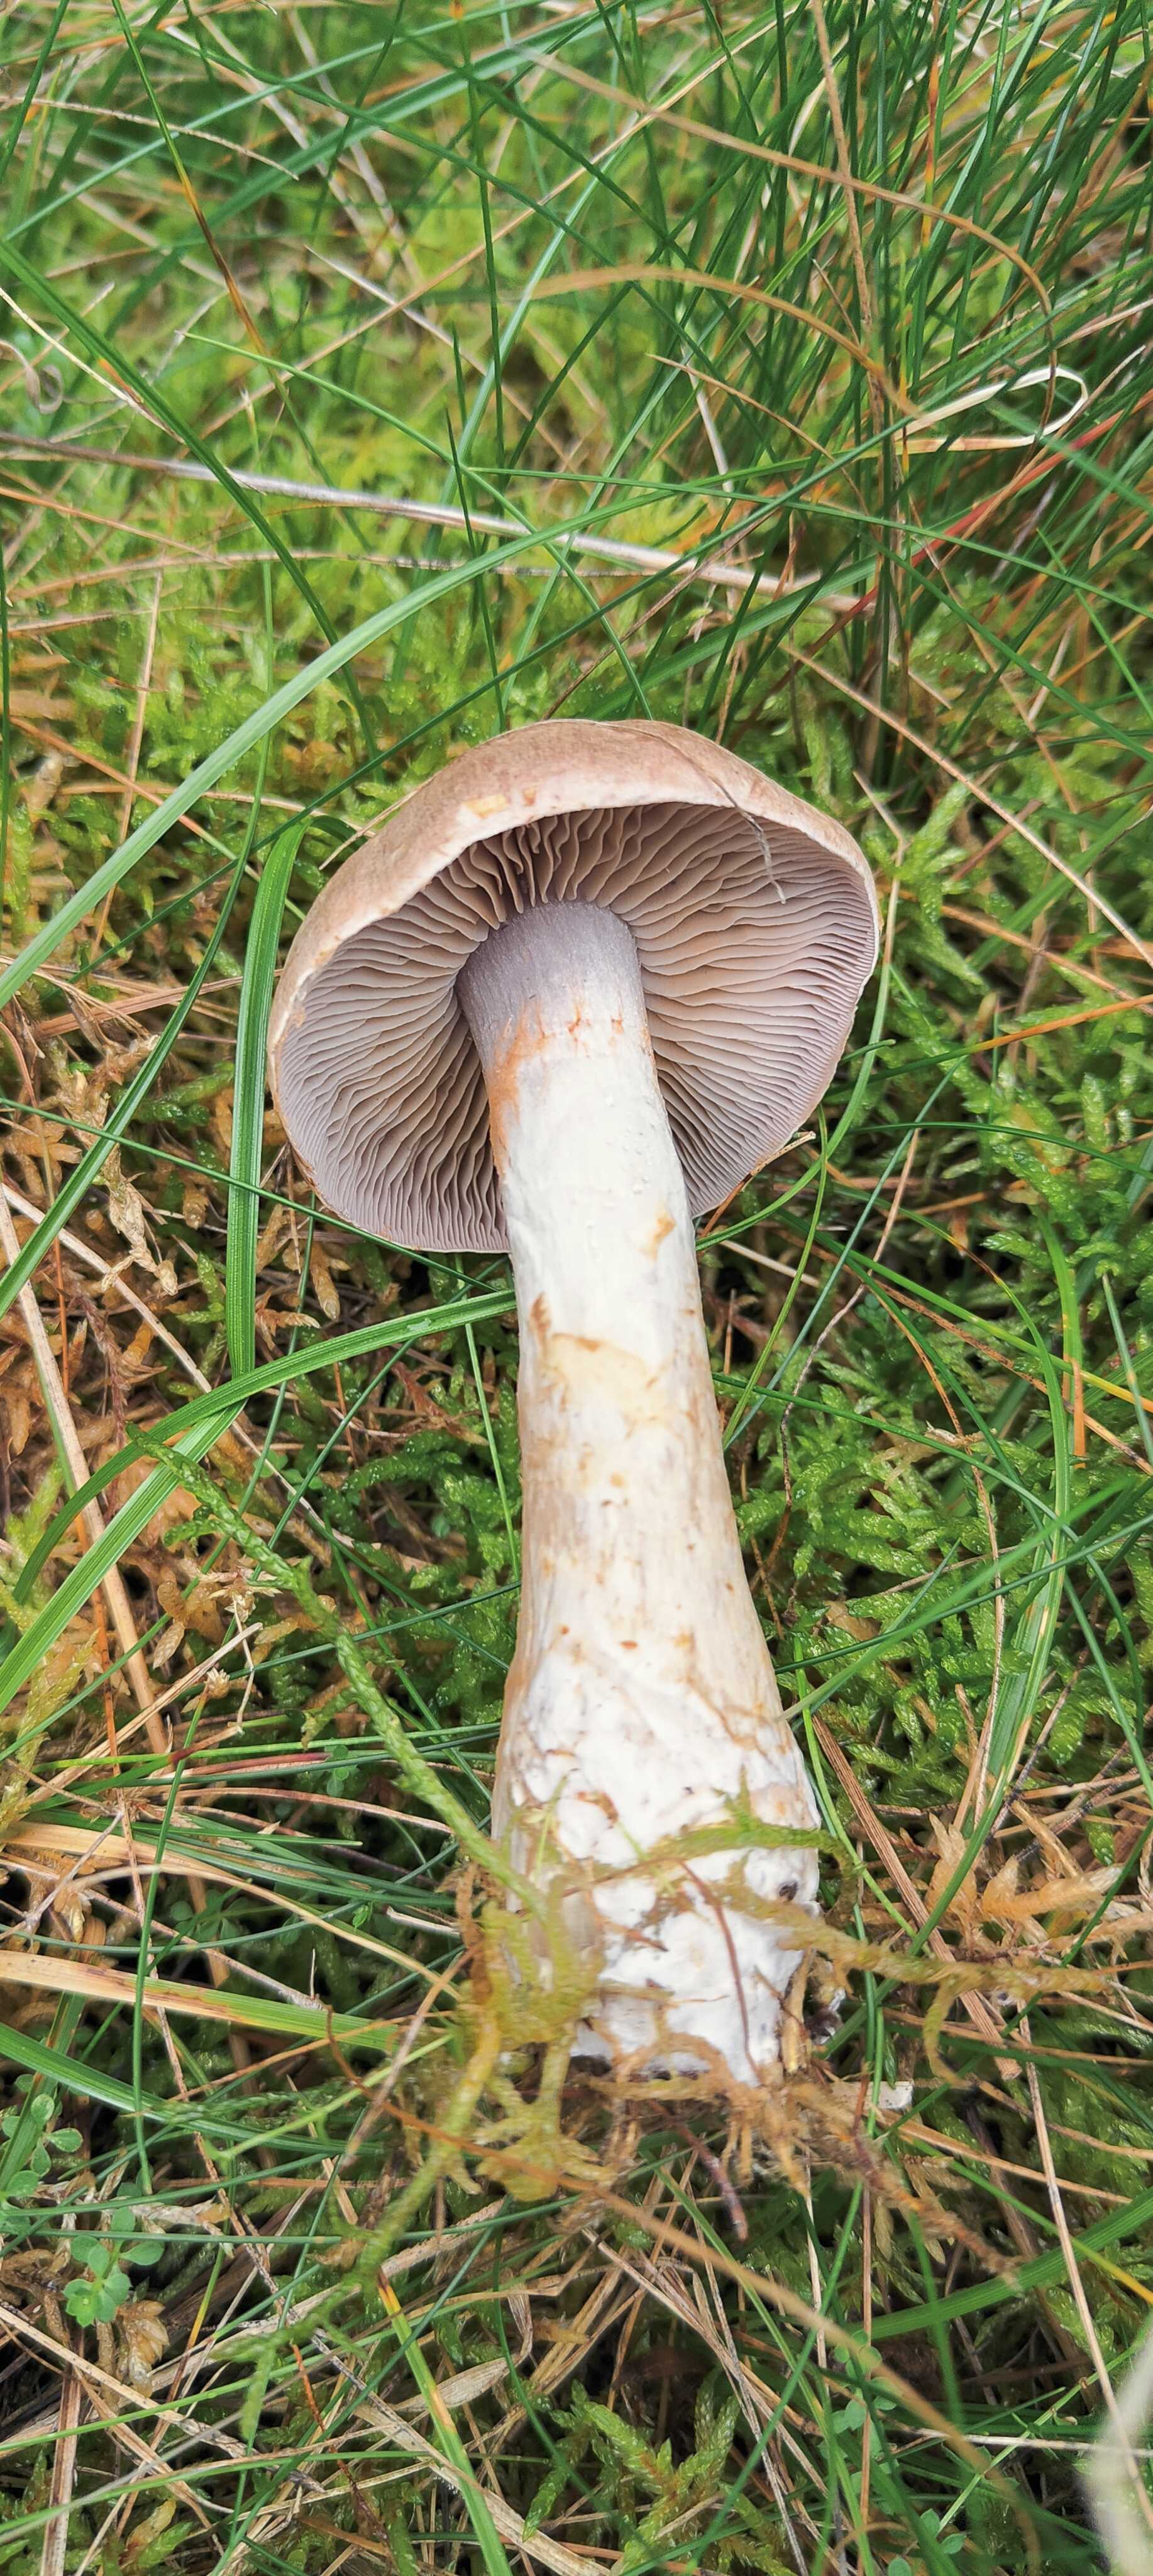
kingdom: Fungi
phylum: Basidiomycota
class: Agaricomycetes
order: Agaricales
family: Cortinariaceae
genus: Cortinarius
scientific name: Cortinarius caninus
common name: gran-slørhat
